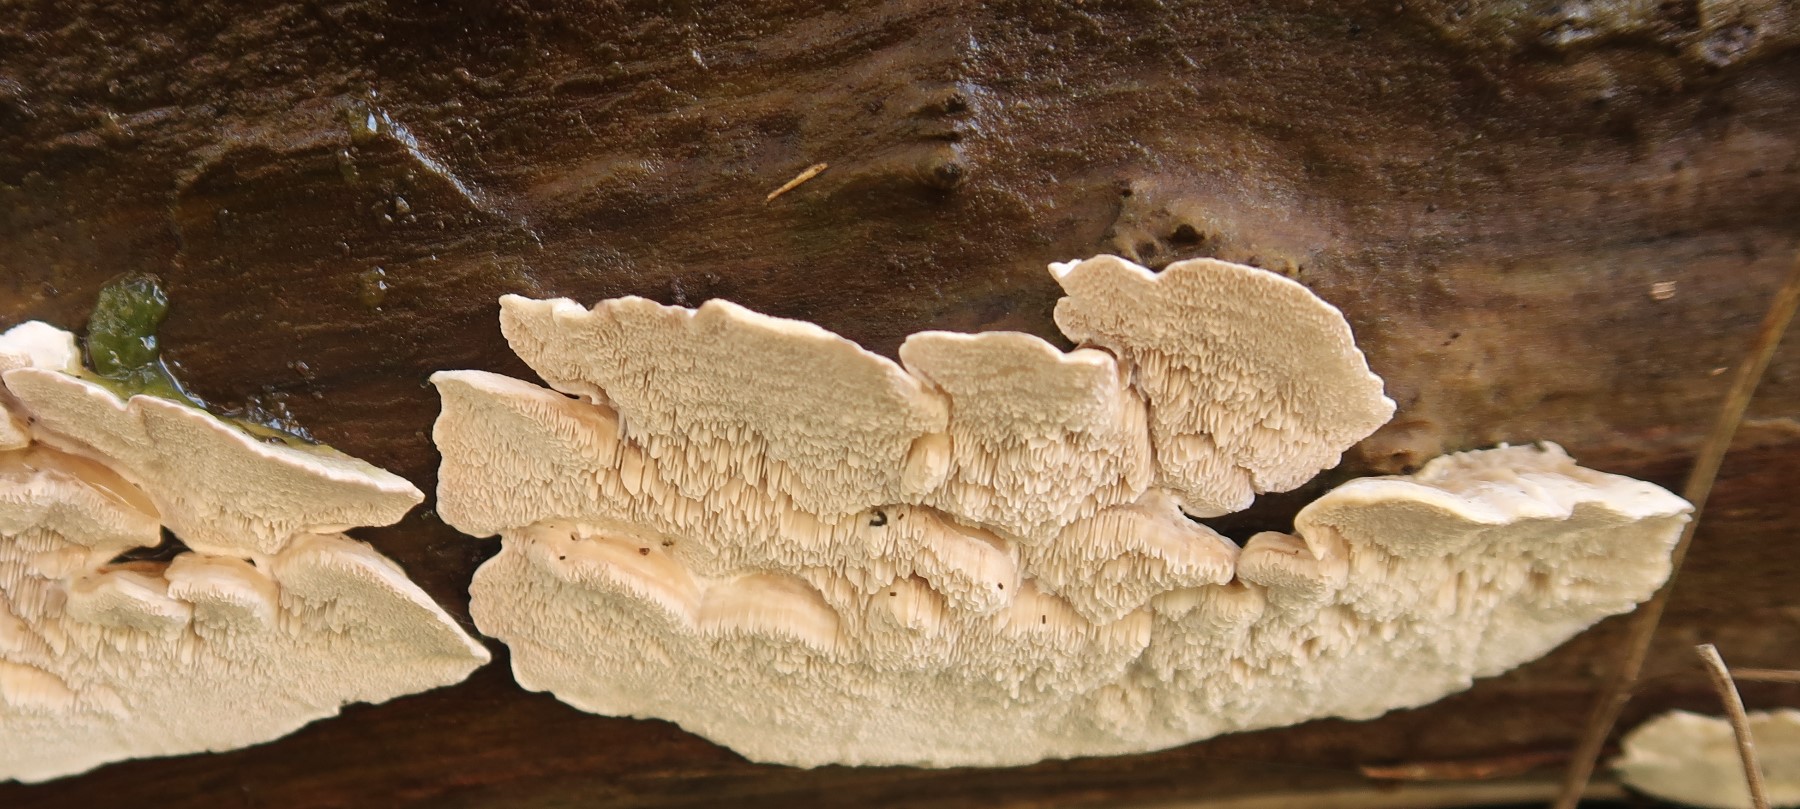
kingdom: Fungi
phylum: Basidiomycota
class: Agaricomycetes
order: Polyporales
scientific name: Polyporales
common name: poresvampordenen
